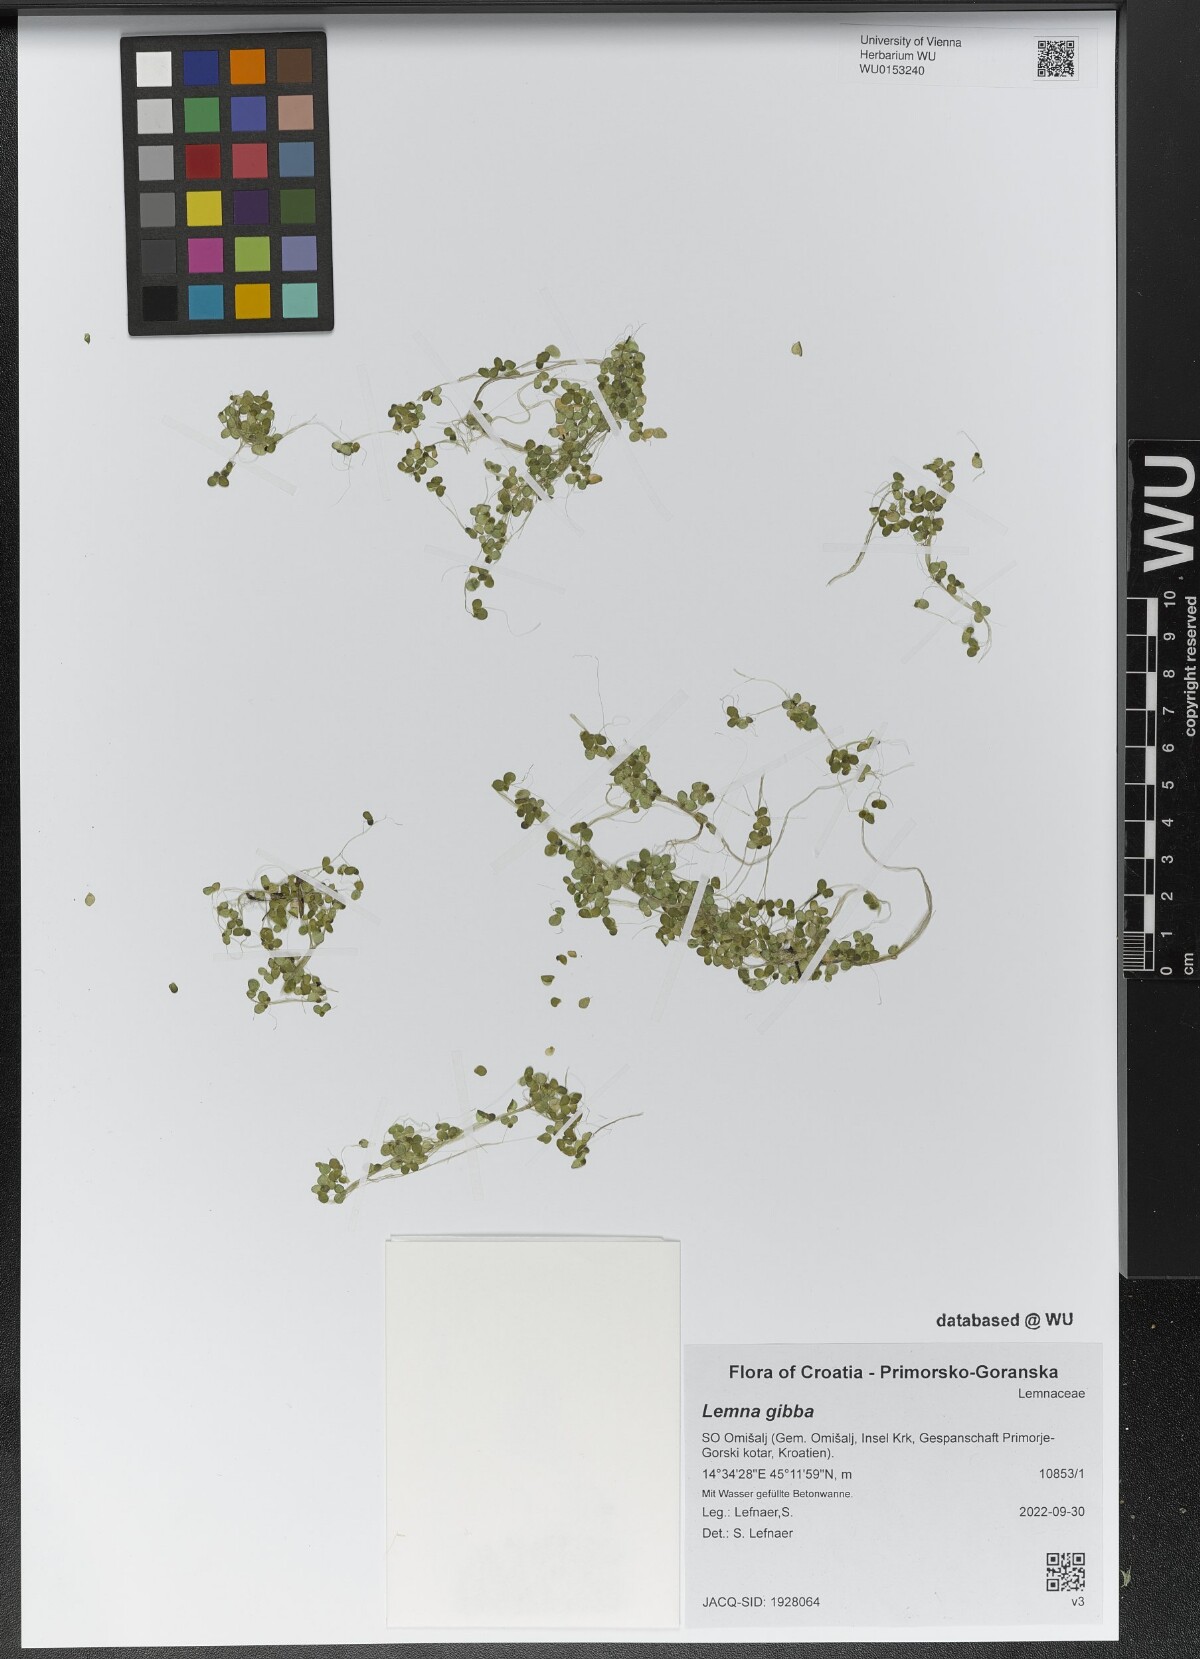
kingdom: Plantae
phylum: Tracheophyta
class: Liliopsida
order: Alismatales
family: Araceae
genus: Lemna
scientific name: Lemna gibba
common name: Fat duckweed
